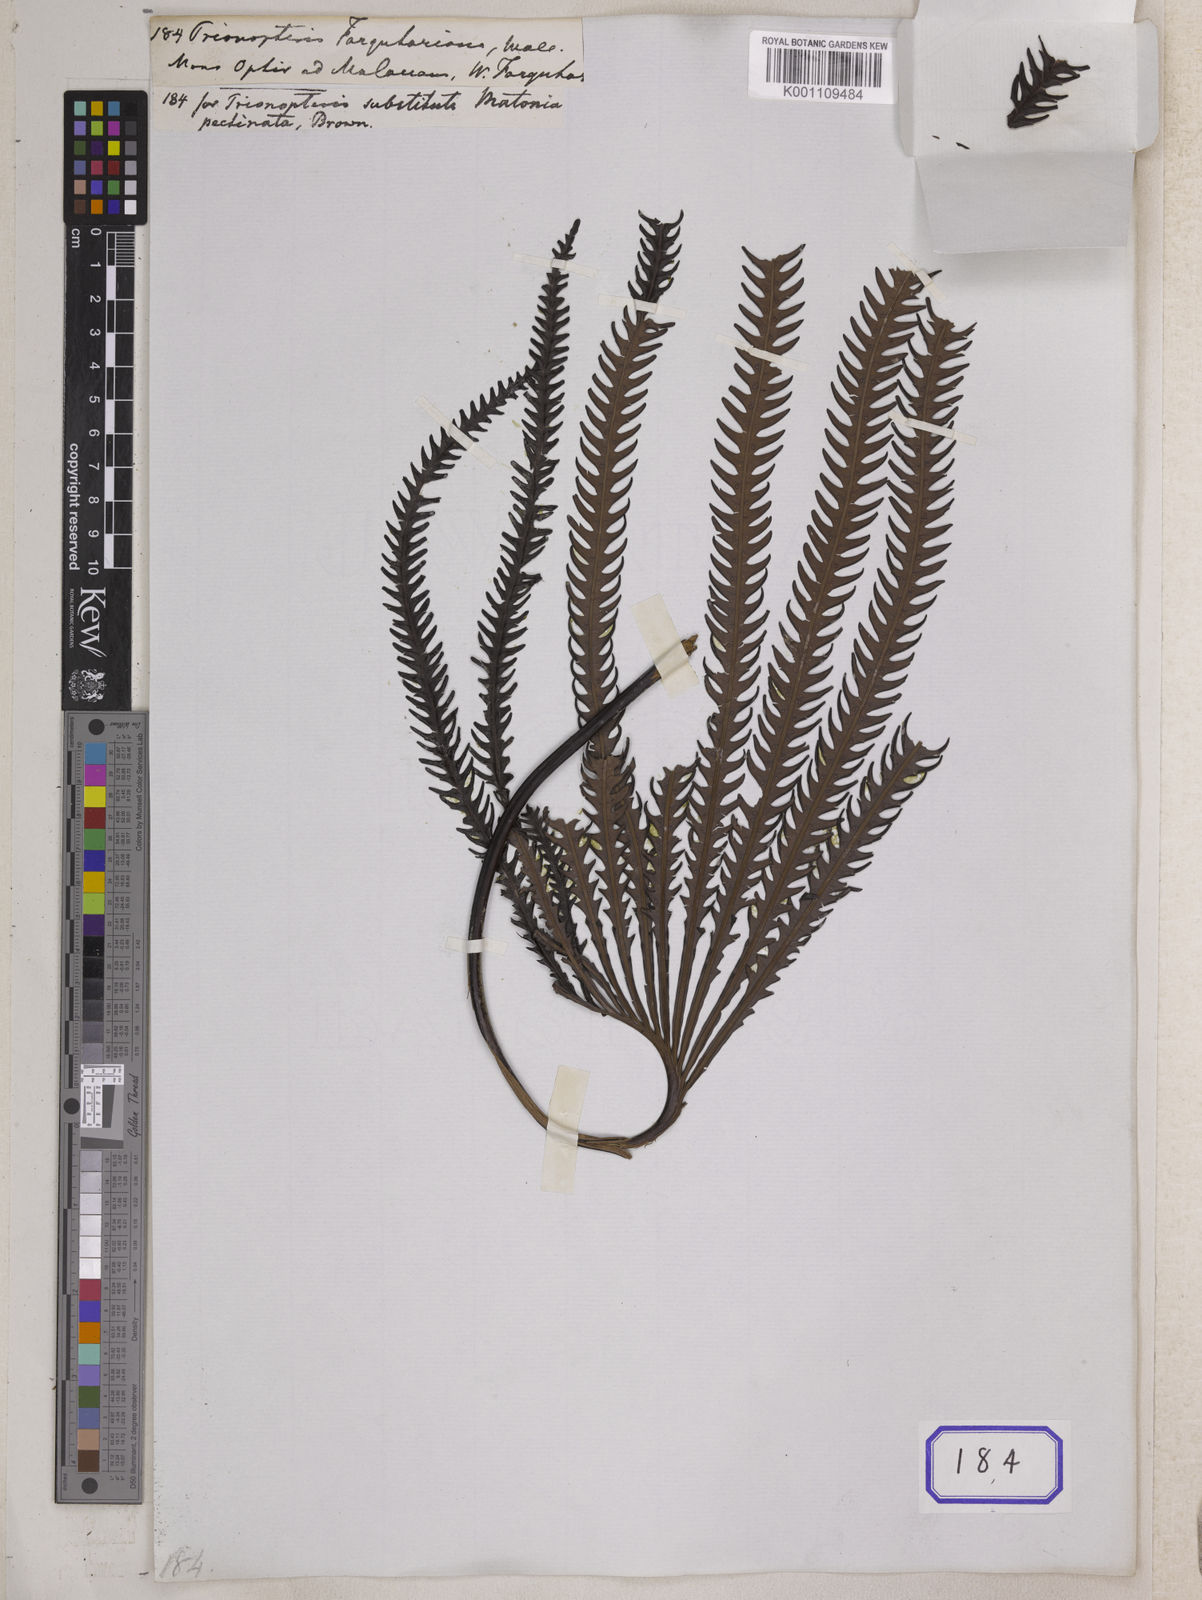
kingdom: Plantae
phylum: Tracheophyta
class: Polypodiopsida
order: Gleicheniales
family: Matoniaceae
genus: Matonia
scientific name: Matonia pectinata
